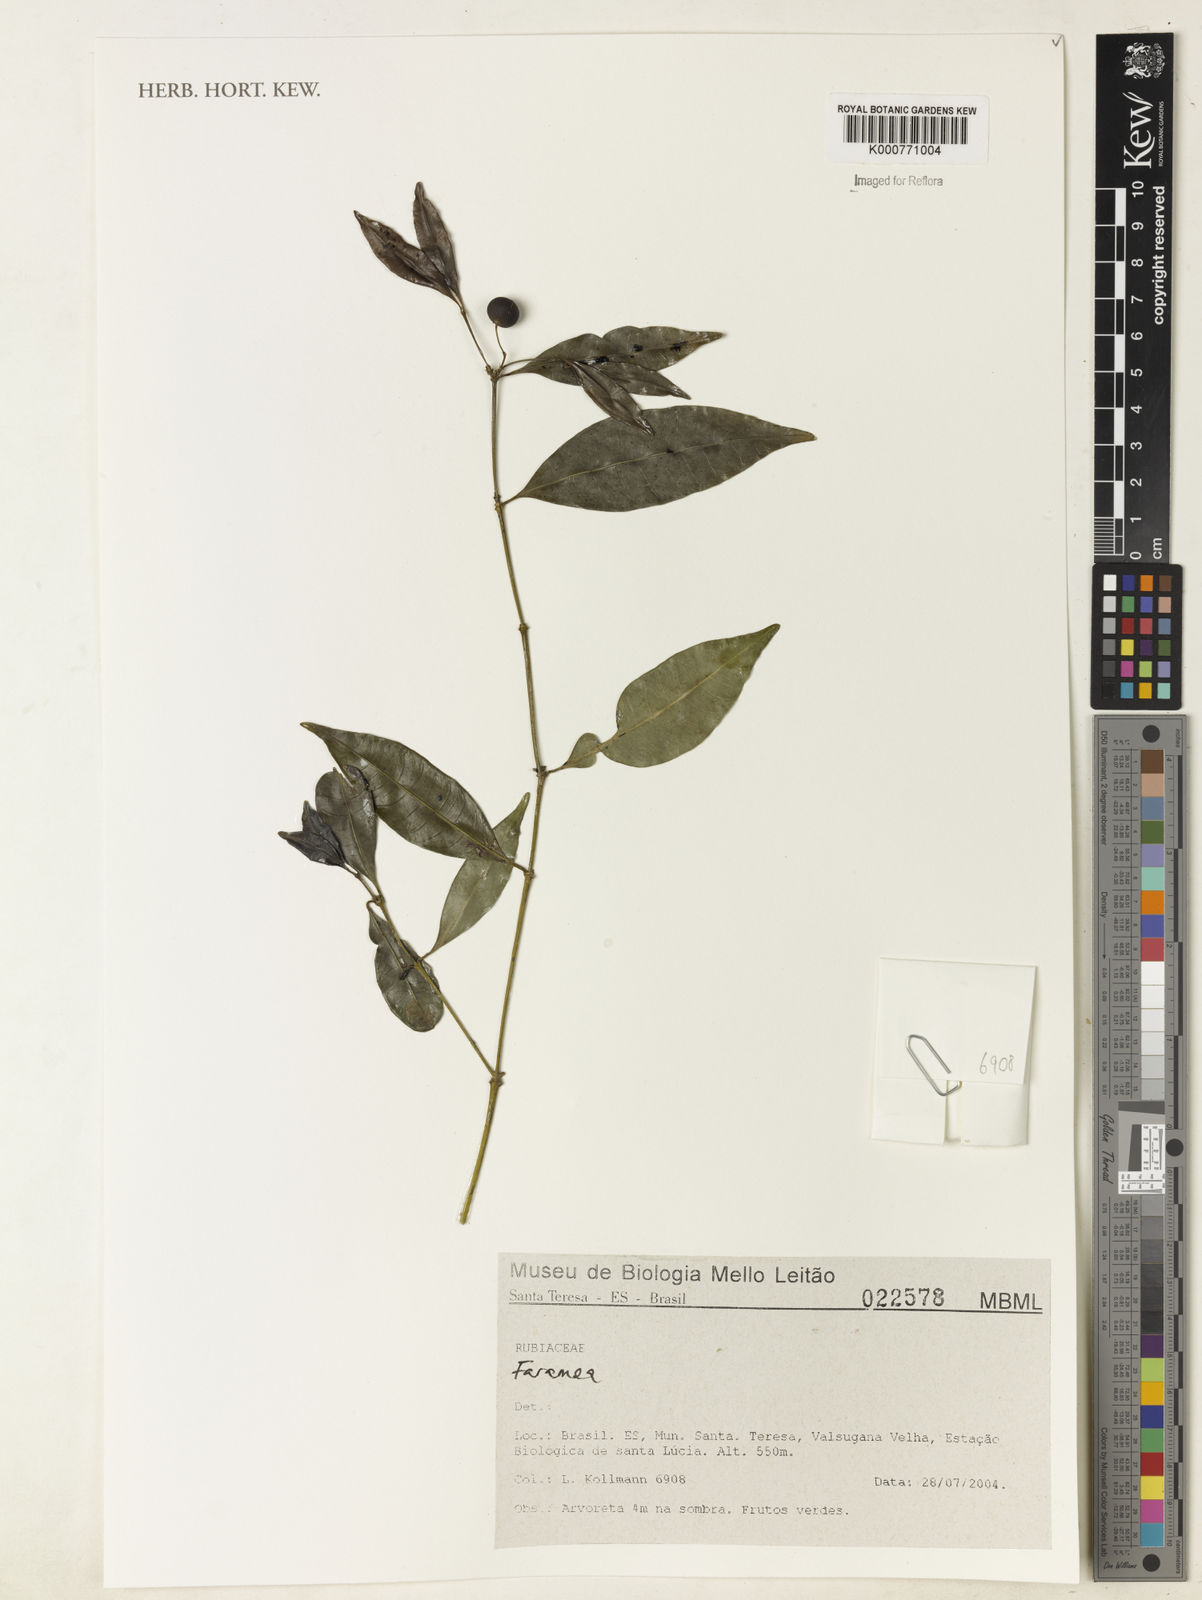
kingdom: Plantae
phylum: Tracheophyta
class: Magnoliopsida
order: Gentianales
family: Rubiaceae
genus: Faramea
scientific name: Faramea
